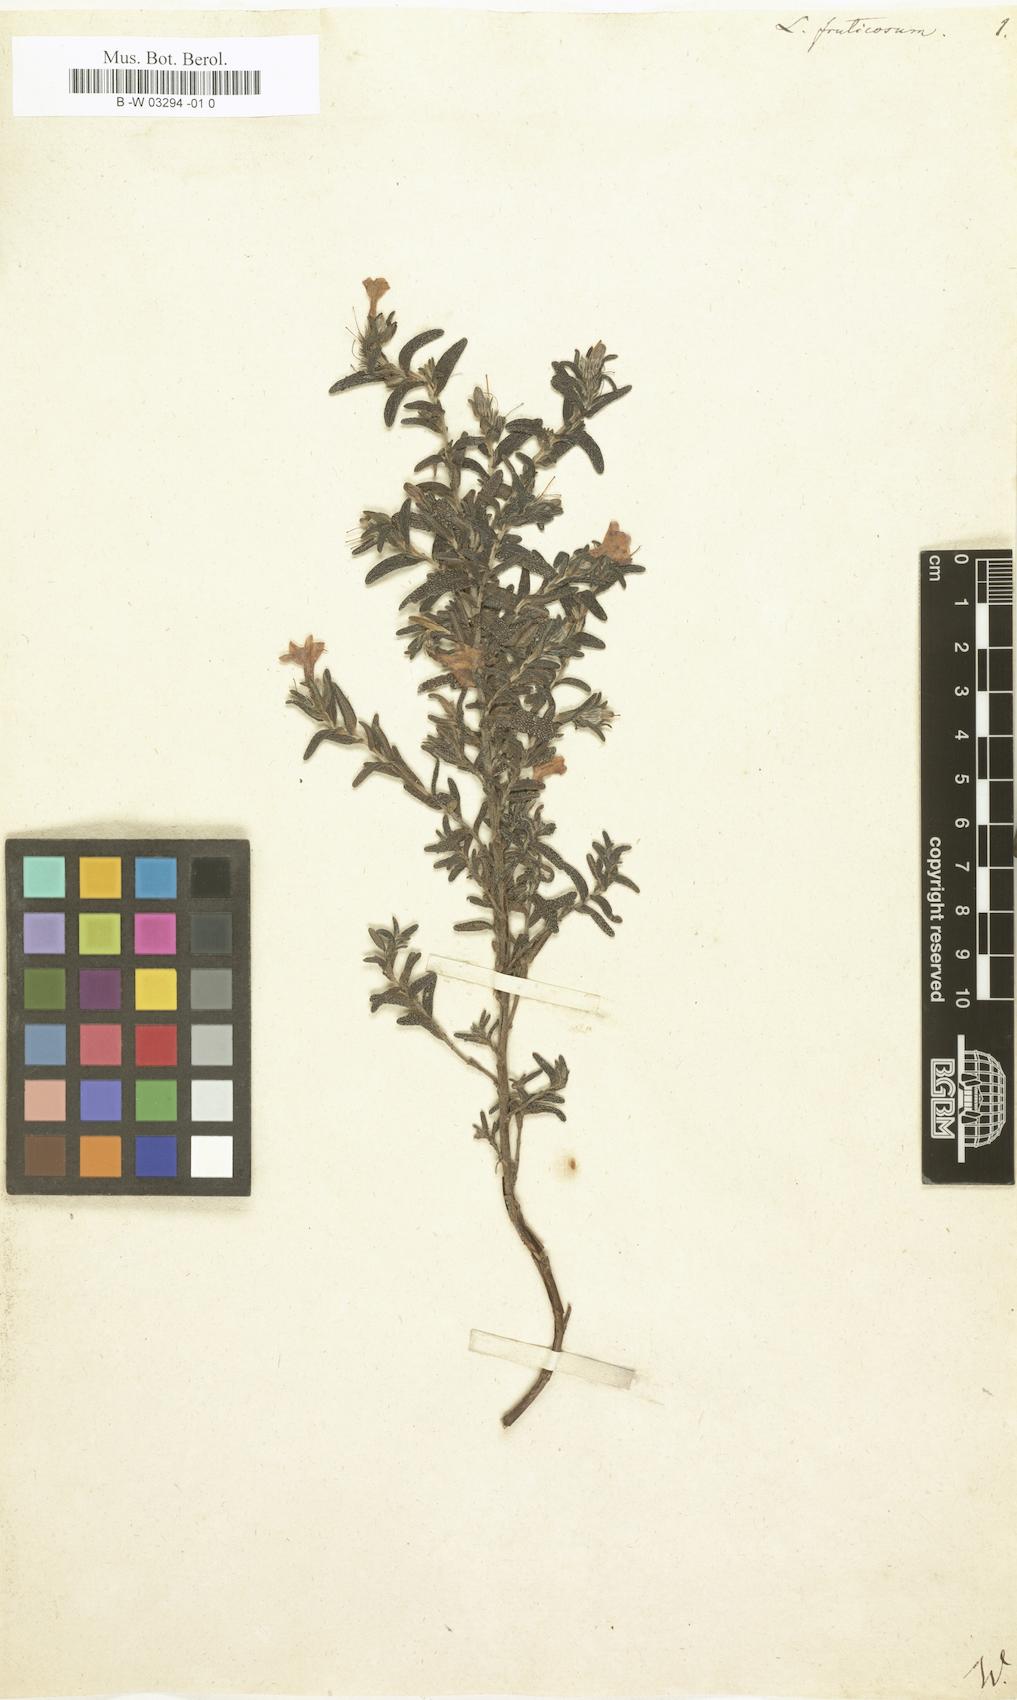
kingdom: Plantae
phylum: Tracheophyta
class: Magnoliopsida
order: Boraginales
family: Boraginaceae
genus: Lithodora
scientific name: Lithodora fruticosa
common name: Shrubby gromwell
